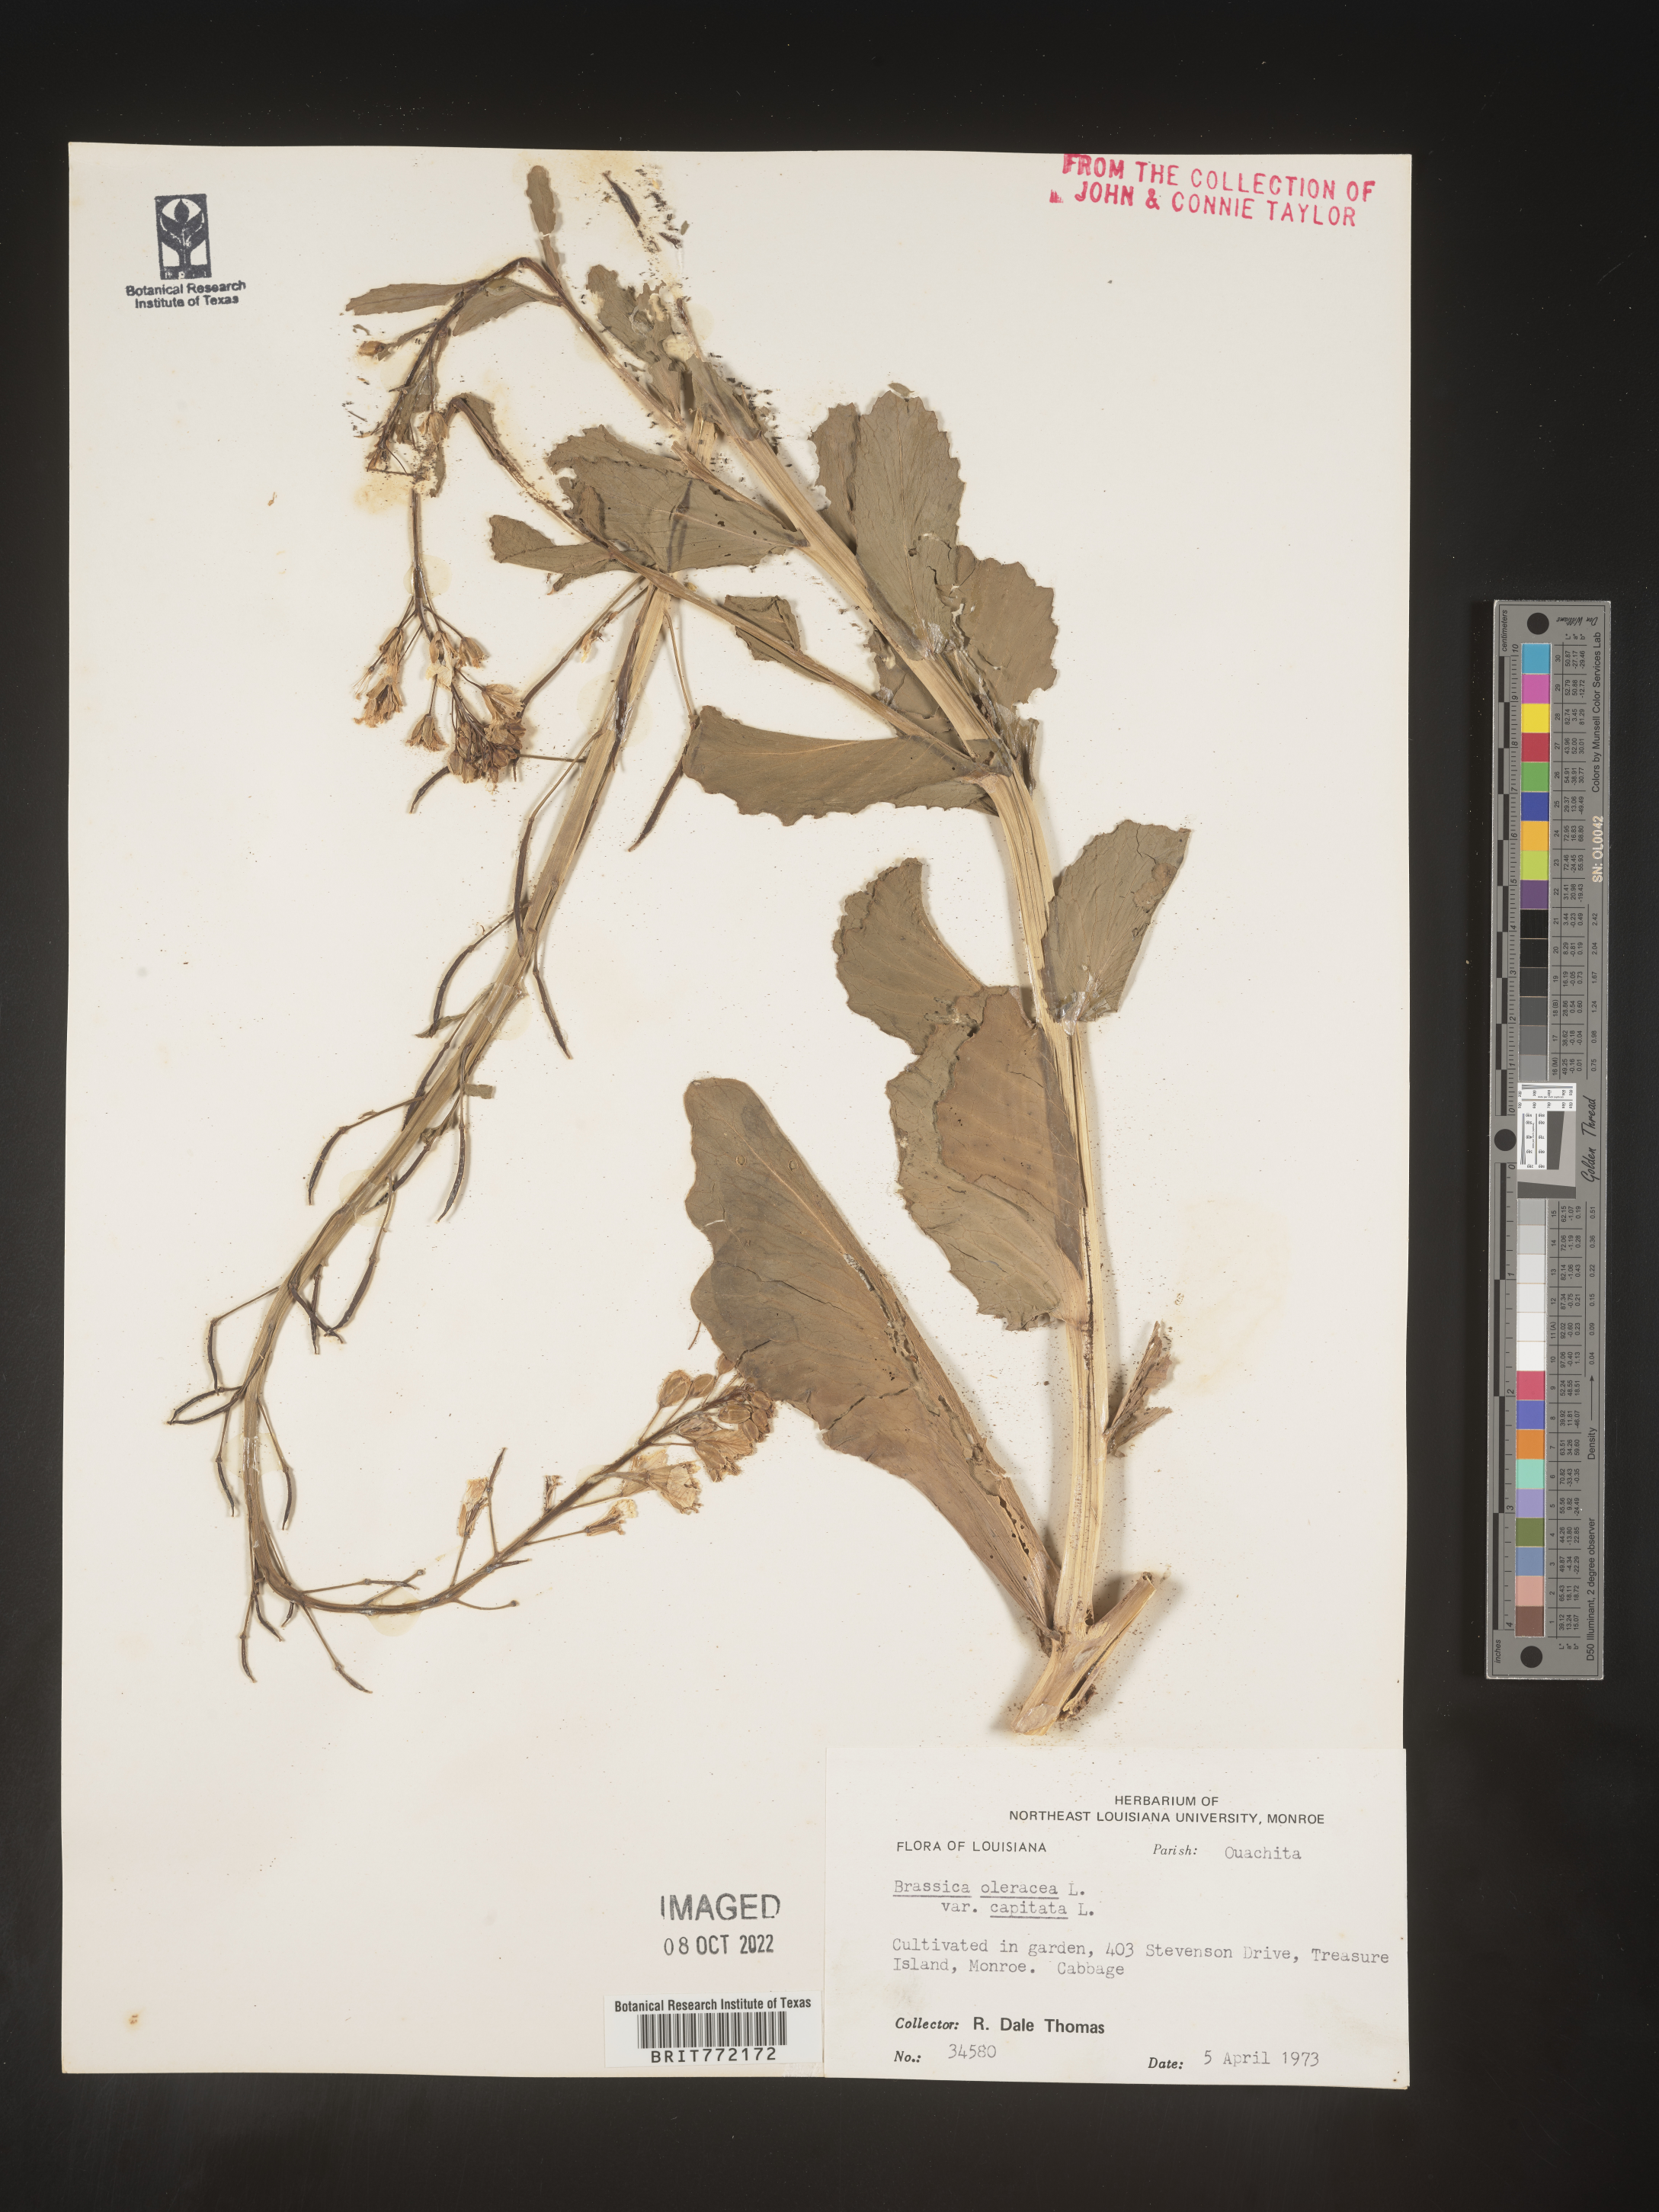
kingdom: Plantae
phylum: Tracheophyta
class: Magnoliopsida
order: Brassicales
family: Brassicaceae
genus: Brassica
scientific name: Brassica oleracea
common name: Cabbage
